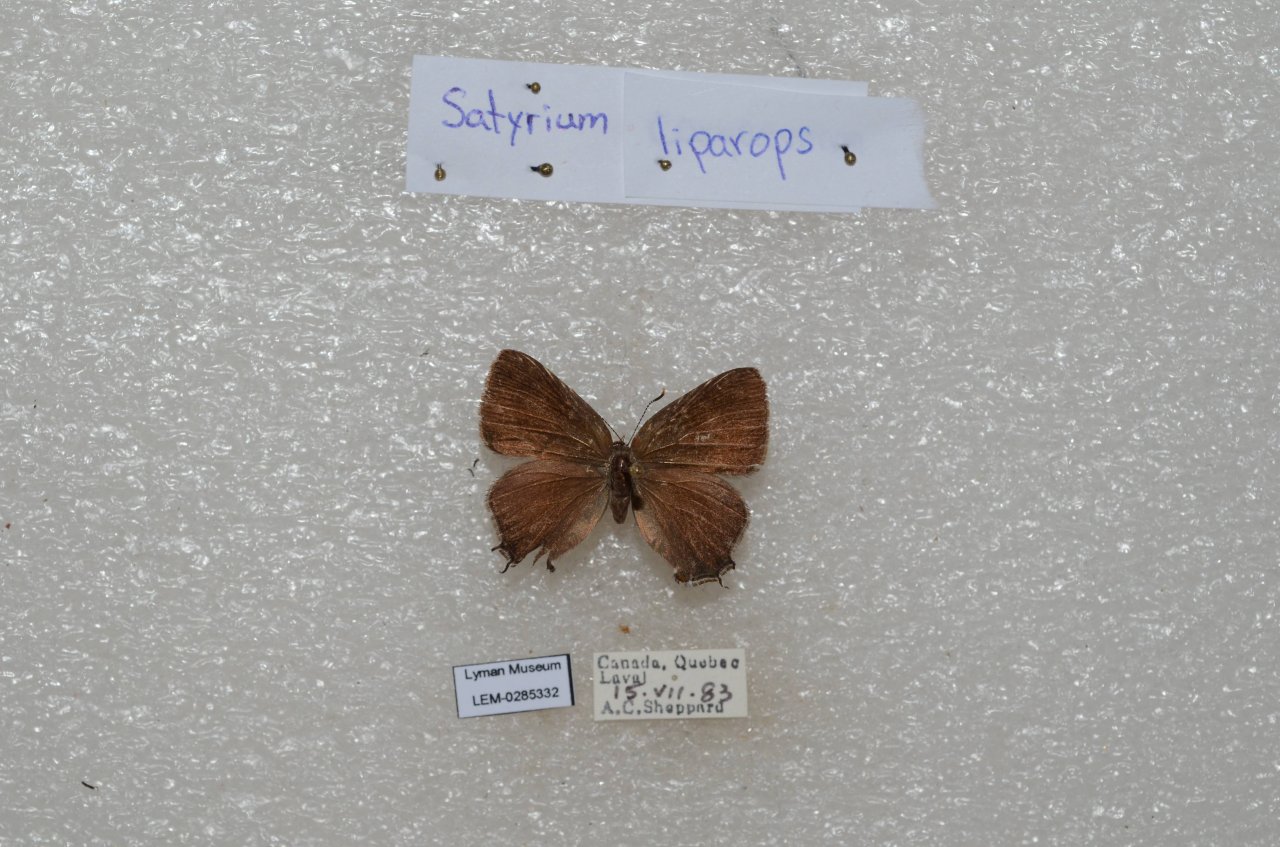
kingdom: Animalia
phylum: Arthropoda
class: Insecta
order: Lepidoptera
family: Lycaenidae
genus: Satyrium
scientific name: Satyrium liparops
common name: Striped Hairstreak
